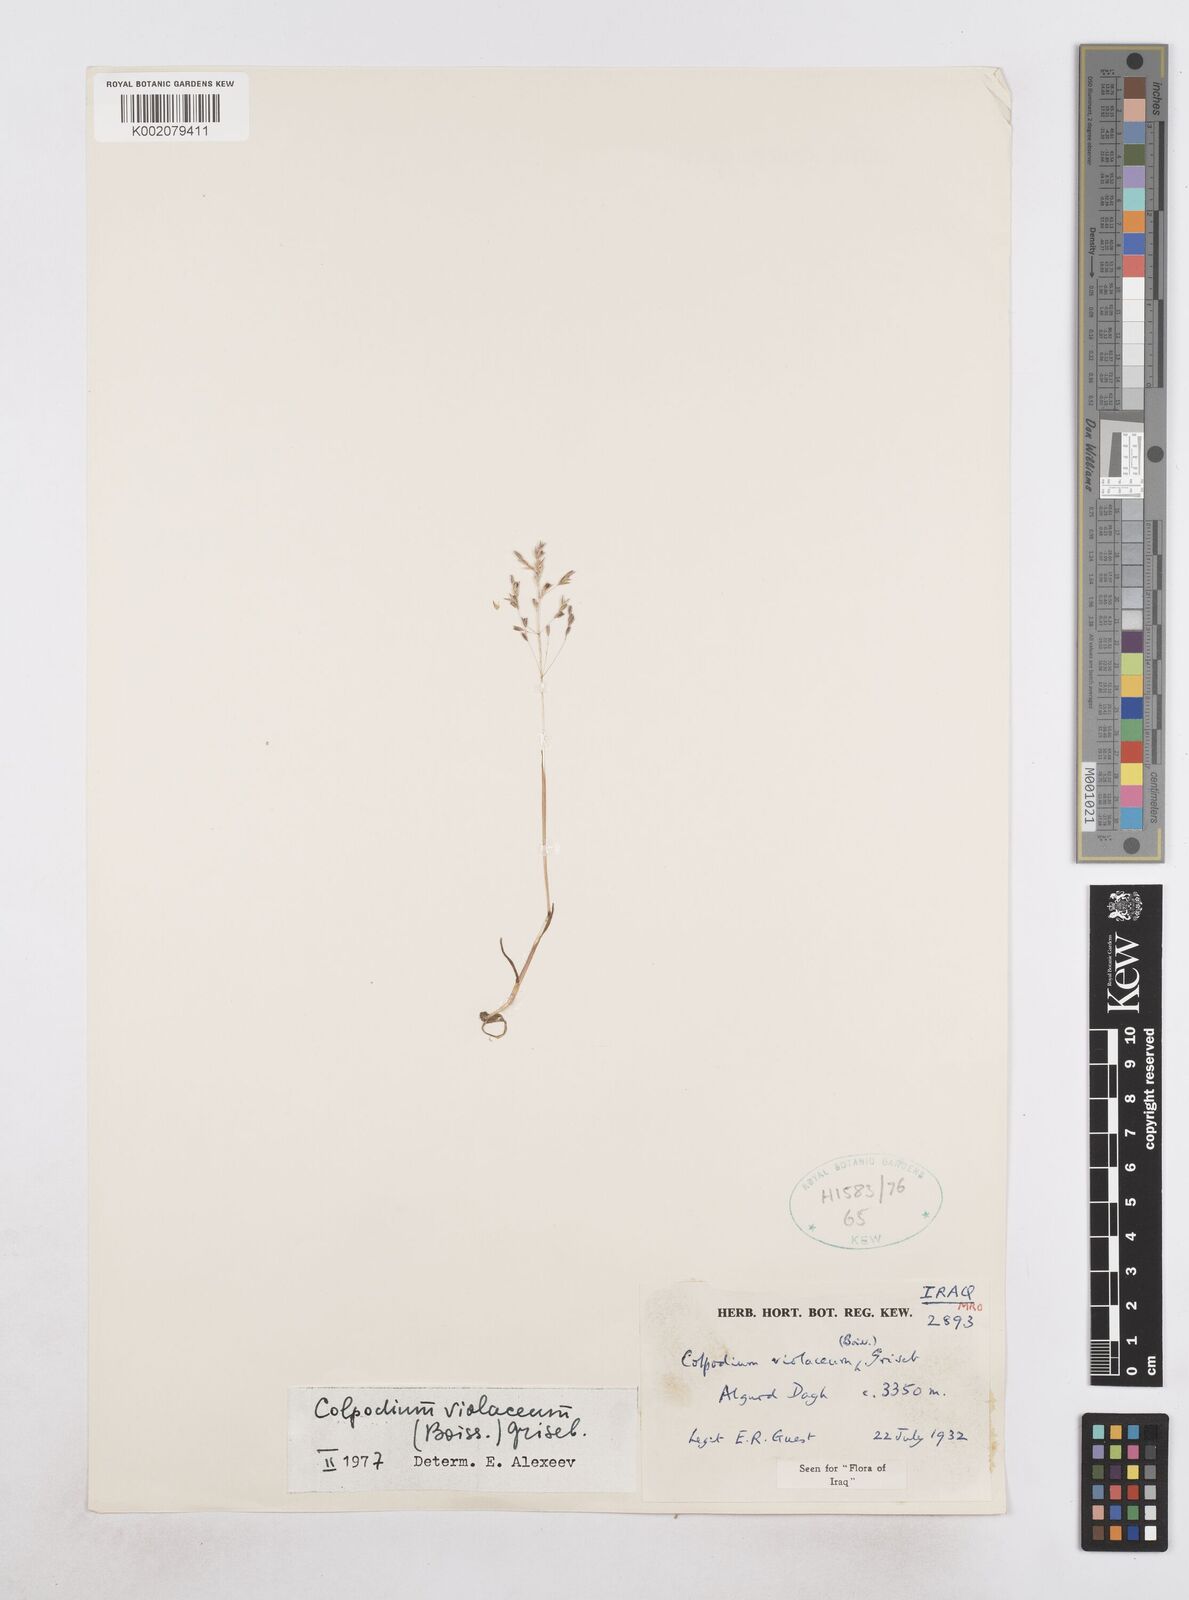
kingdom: Plantae
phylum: Tracheophyta
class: Liliopsida
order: Poales
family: Poaceae
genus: Catabrosella
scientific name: Catabrosella violacea
